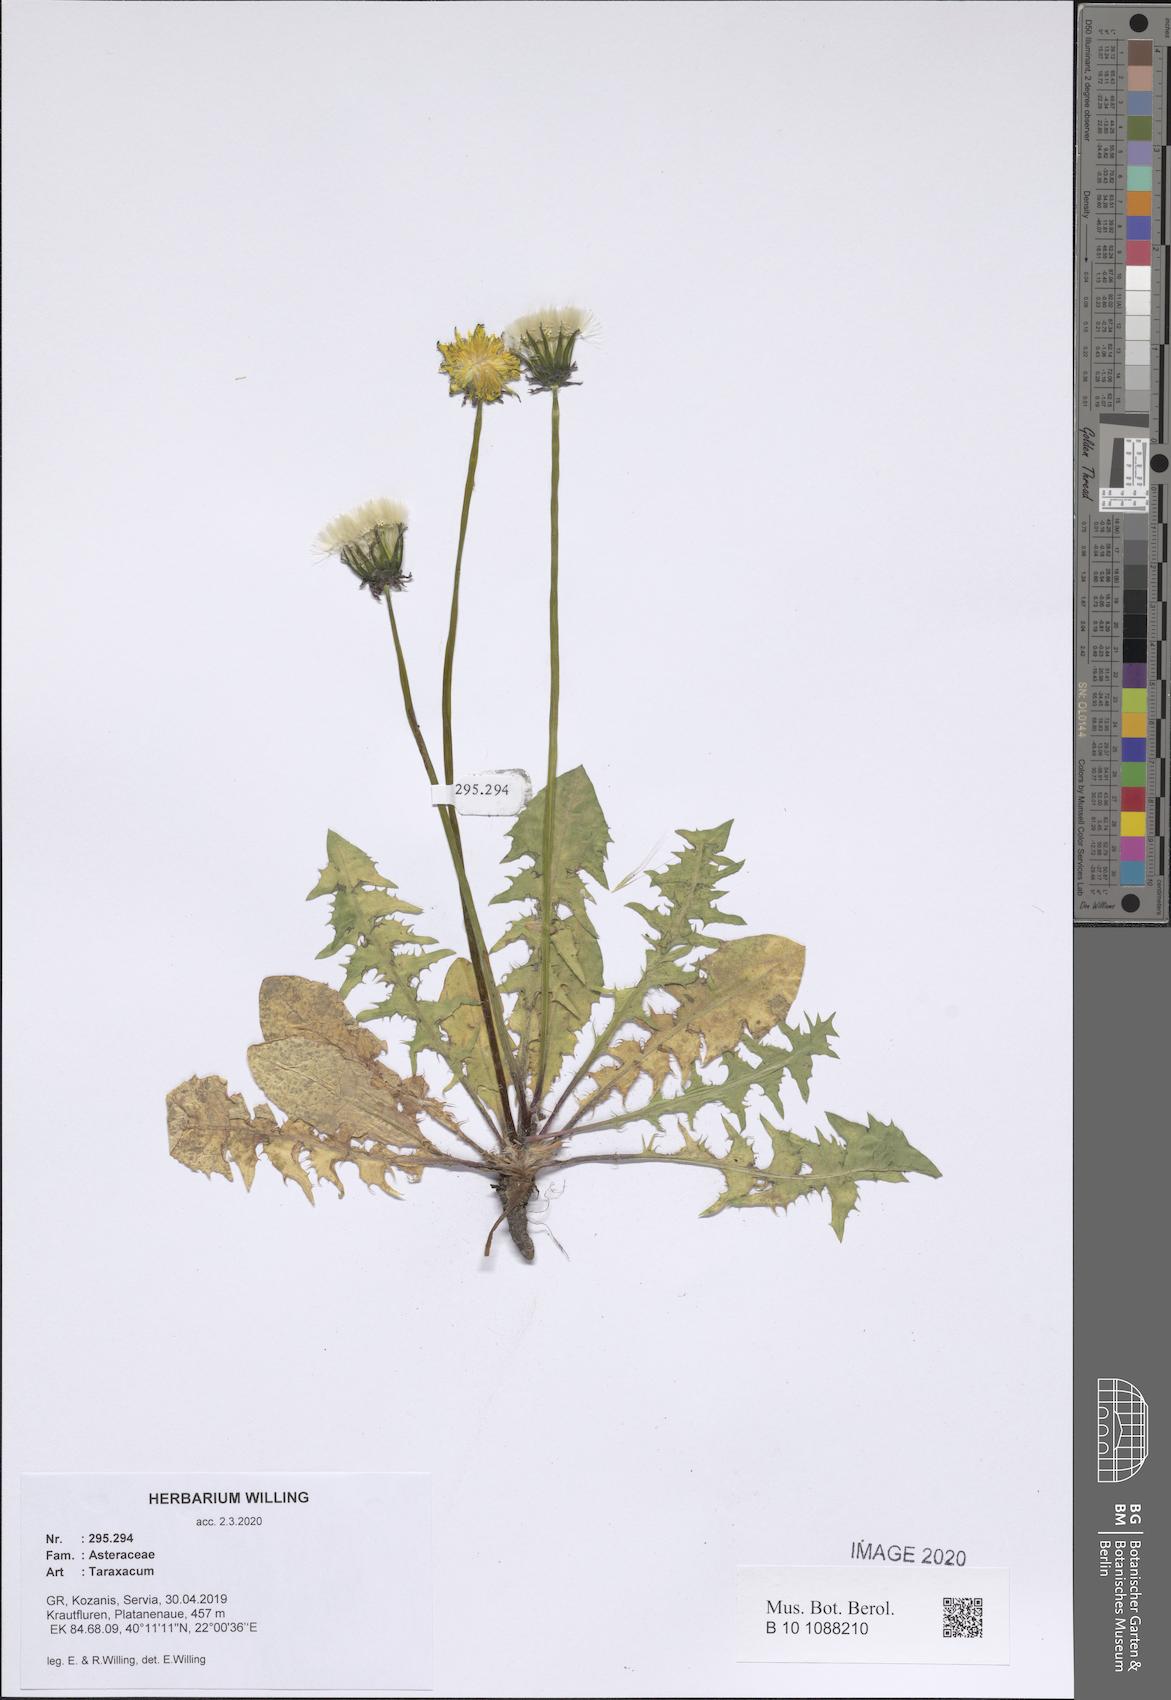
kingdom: Plantae
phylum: Tracheophyta
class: Magnoliopsida
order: Asterales
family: Asteraceae
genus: Taraxacum
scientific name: Taraxacum
